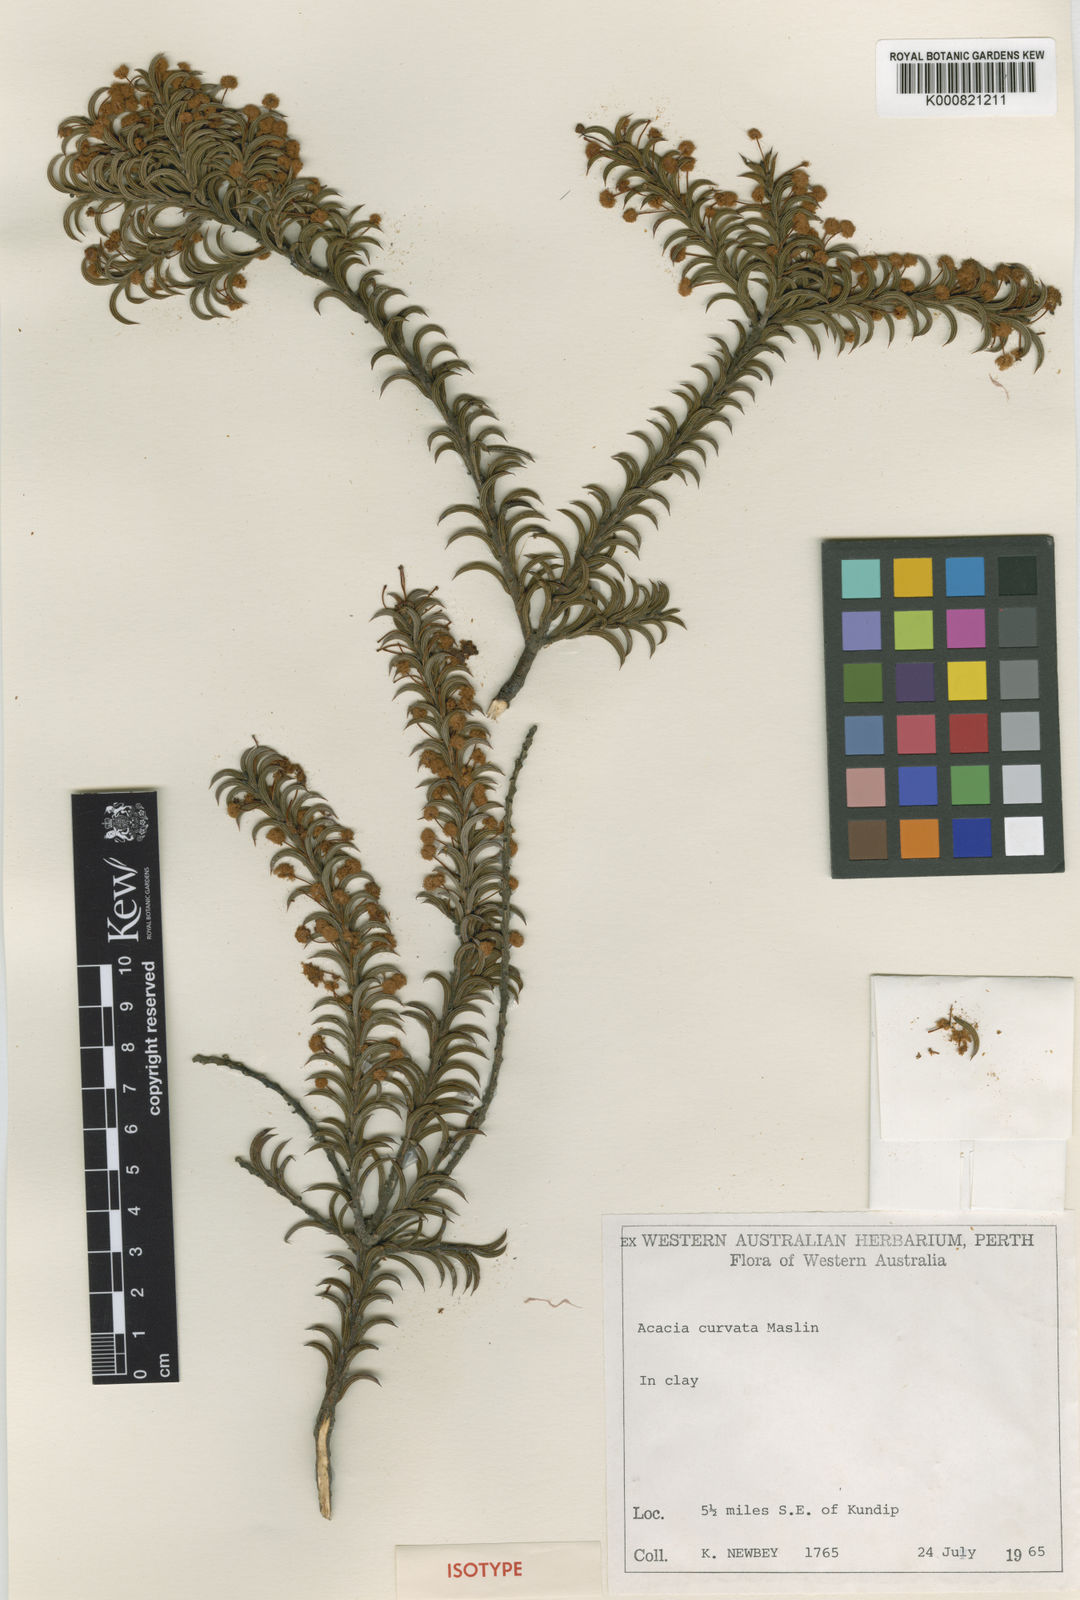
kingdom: Plantae
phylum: Tracheophyta
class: Magnoliopsida
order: Fabales
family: Fabaceae
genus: Acacia
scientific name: Acacia curvata
